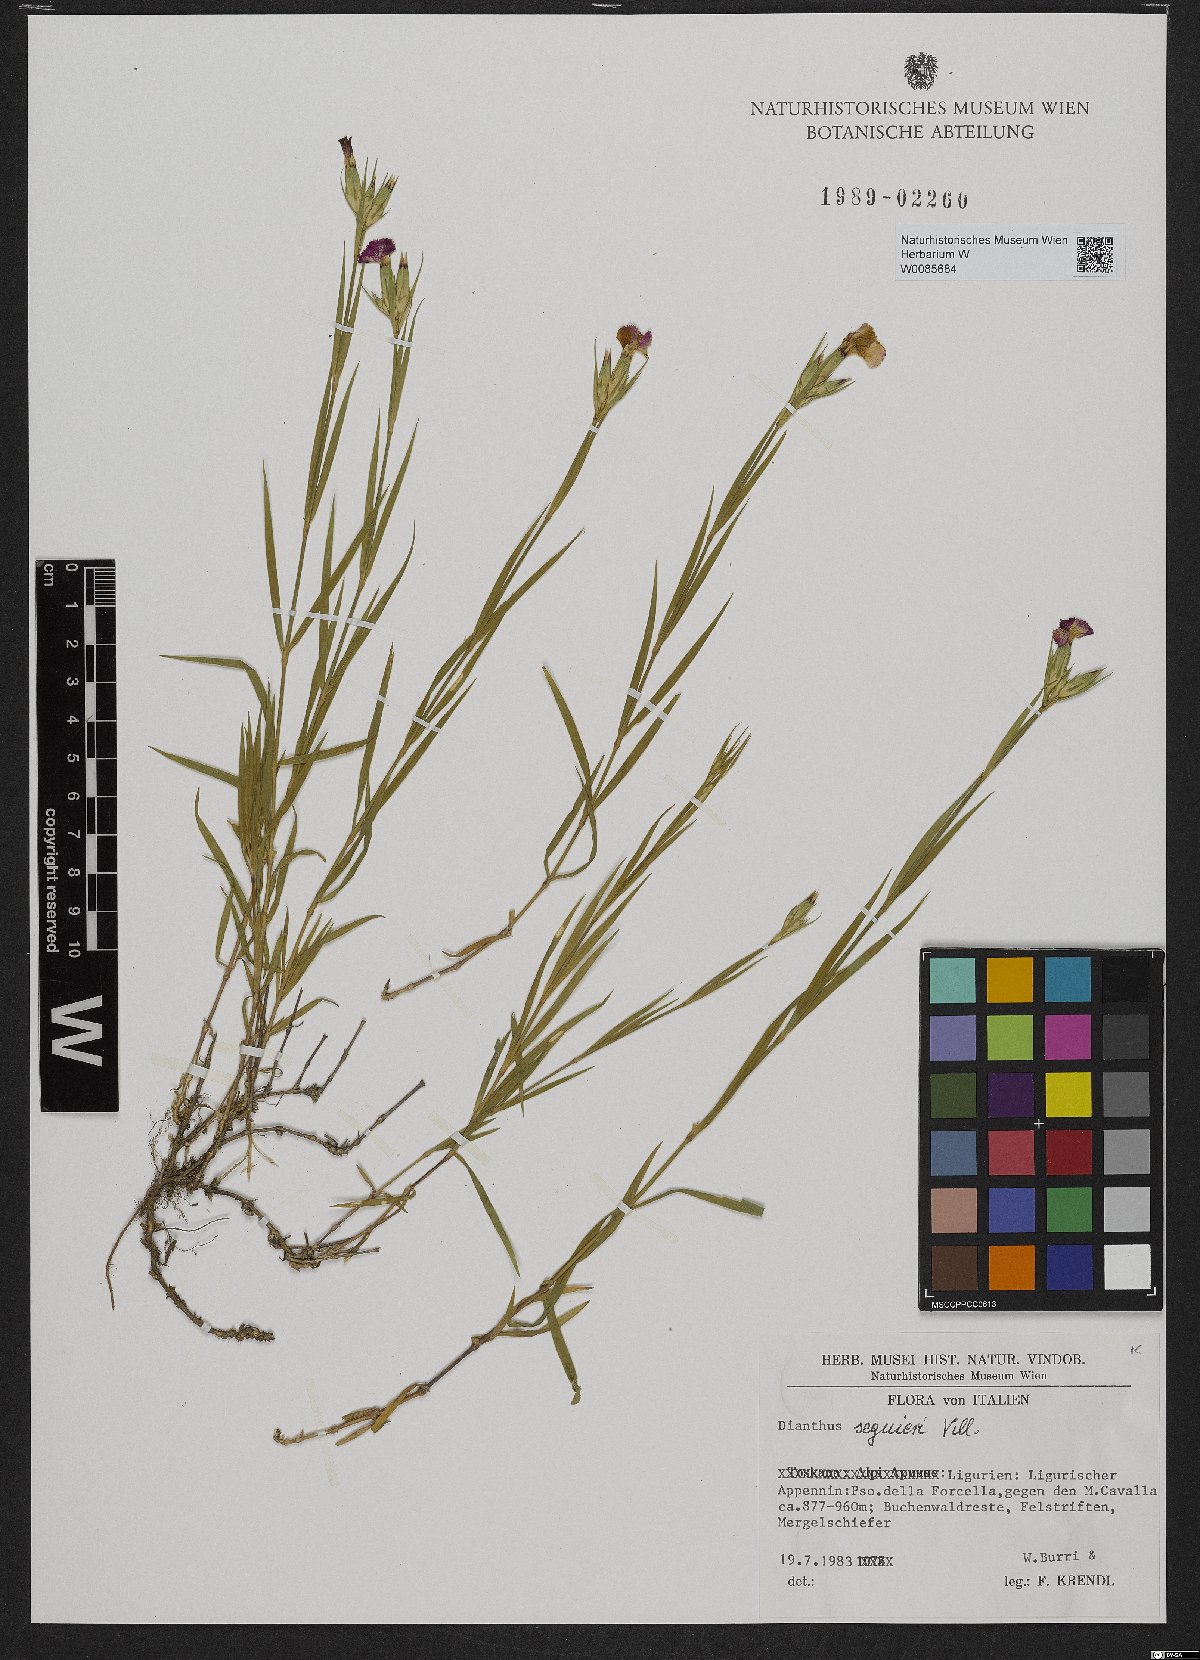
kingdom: Plantae
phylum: Tracheophyta
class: Magnoliopsida
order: Caryophyllales
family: Caryophyllaceae
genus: Dianthus
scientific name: Dianthus seguieri
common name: Ragged pink
